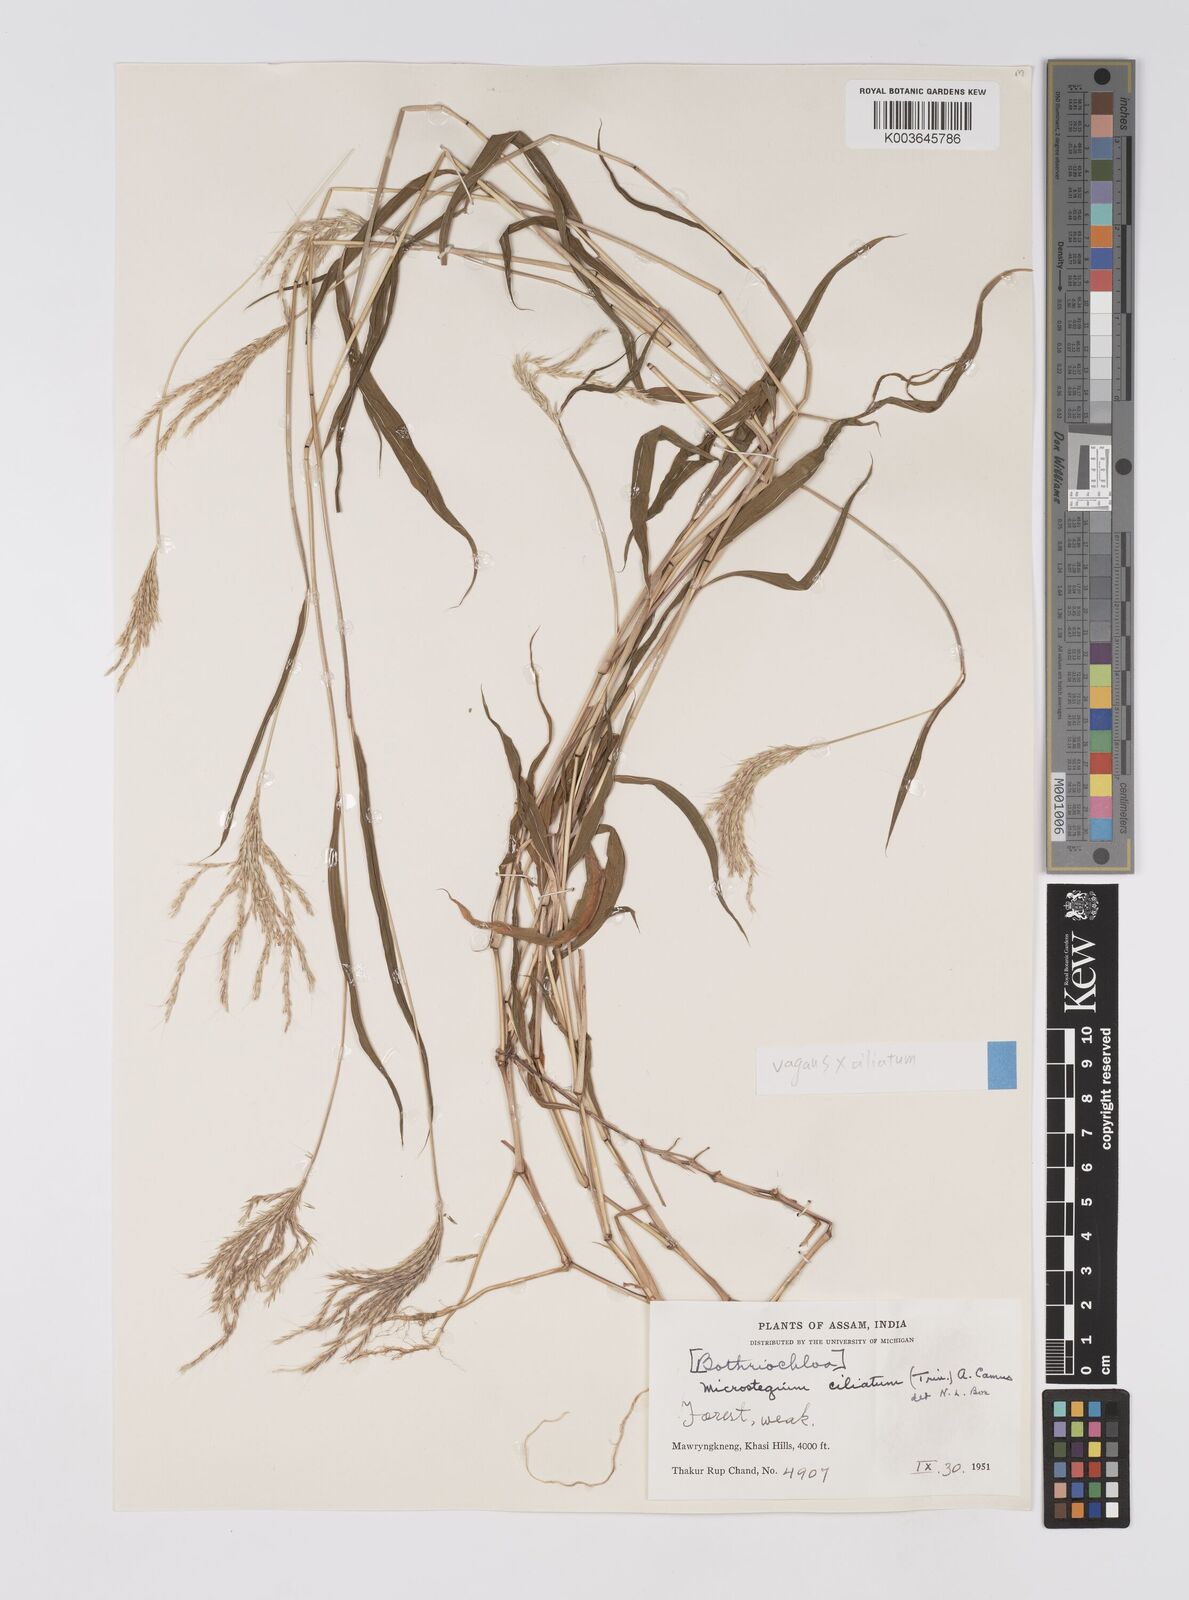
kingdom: Plantae
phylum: Tracheophyta
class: Liliopsida
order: Poales
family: Poaceae
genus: Microstegium
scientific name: Microstegium fasciculatum
